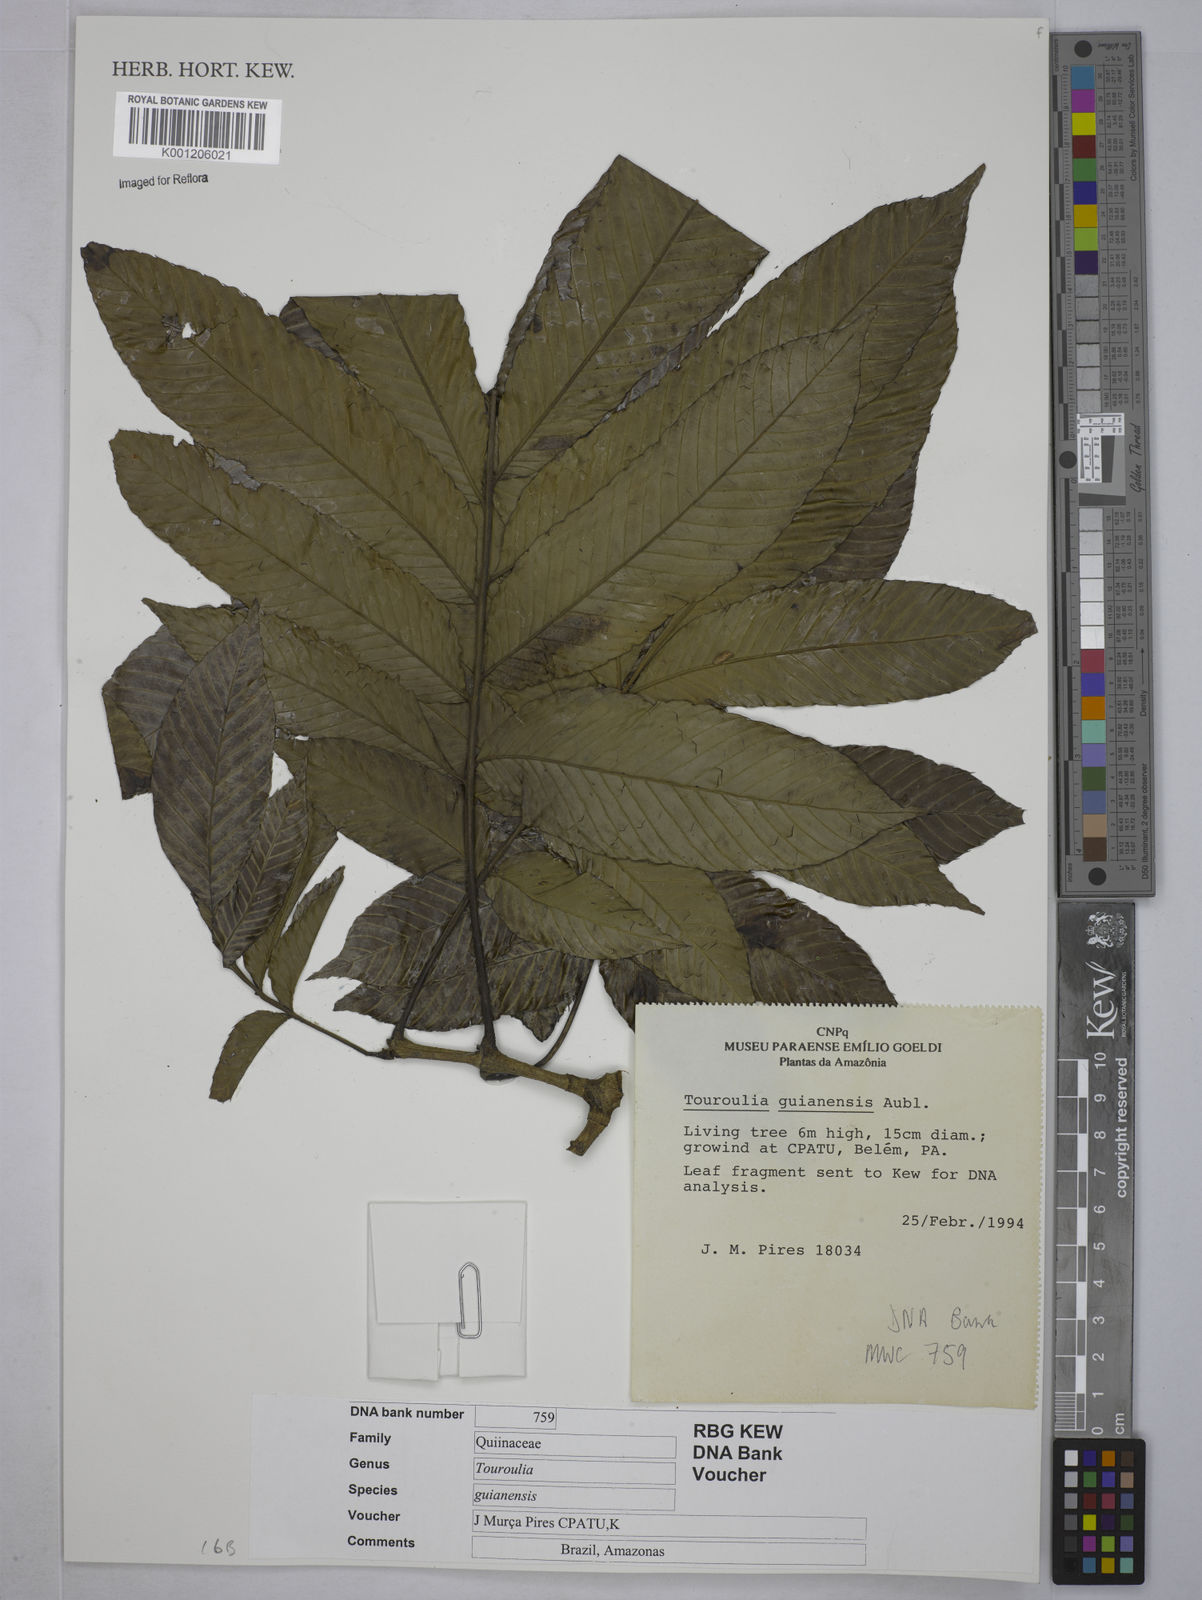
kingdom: Plantae
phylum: Tracheophyta
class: Magnoliopsida
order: Malpighiales
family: Quiinaceae
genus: Touroulia
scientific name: Touroulia guianensis
